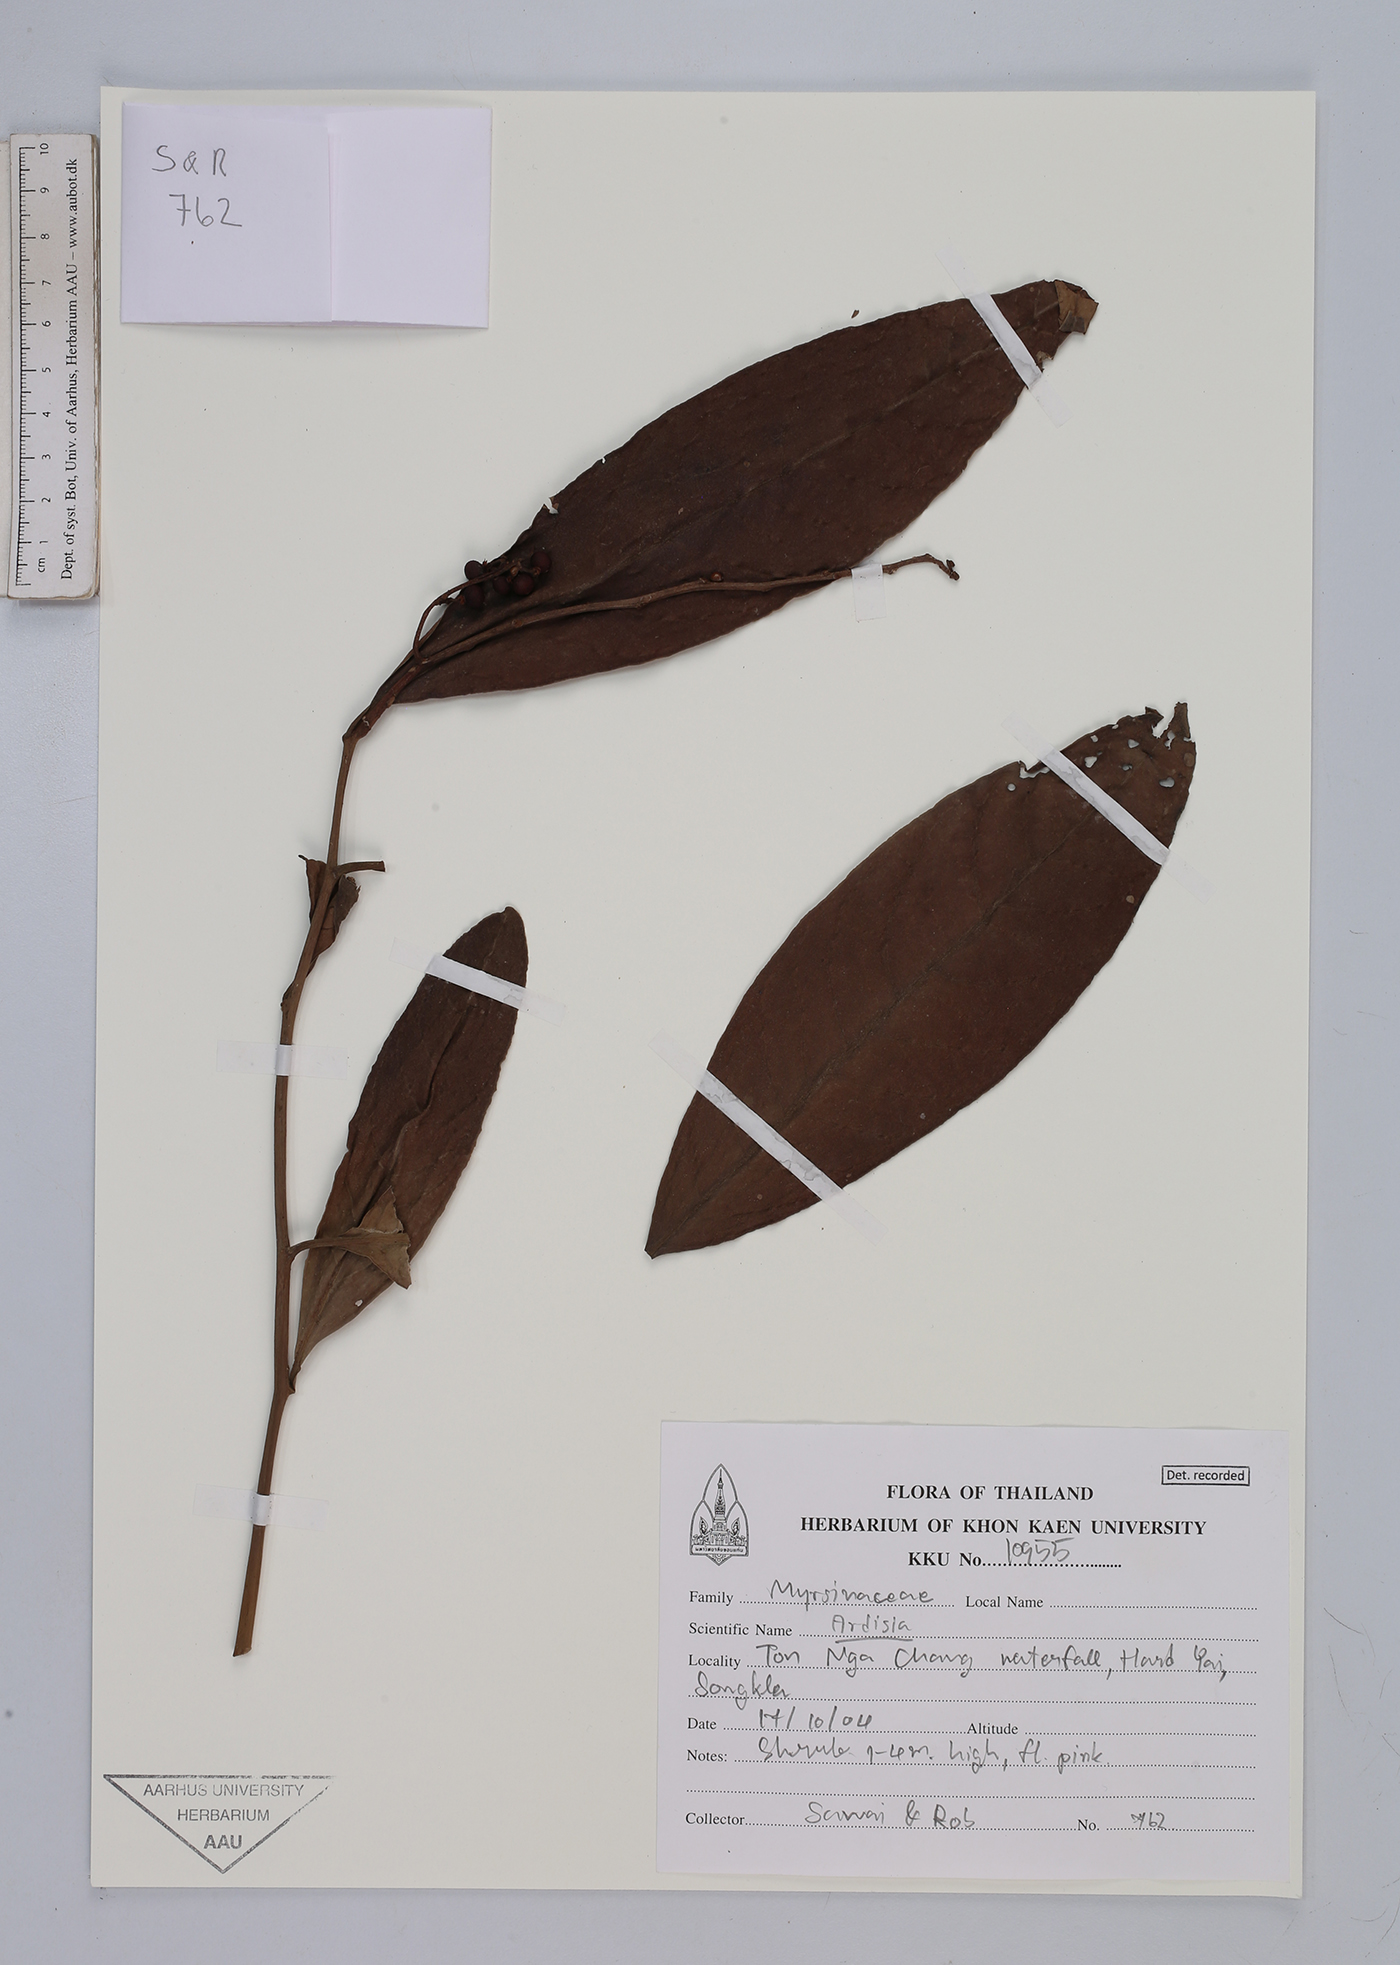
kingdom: Plantae
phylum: Tracheophyta
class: Magnoliopsida
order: Ericales
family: Primulaceae
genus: Ardisia
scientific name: Ardisia
